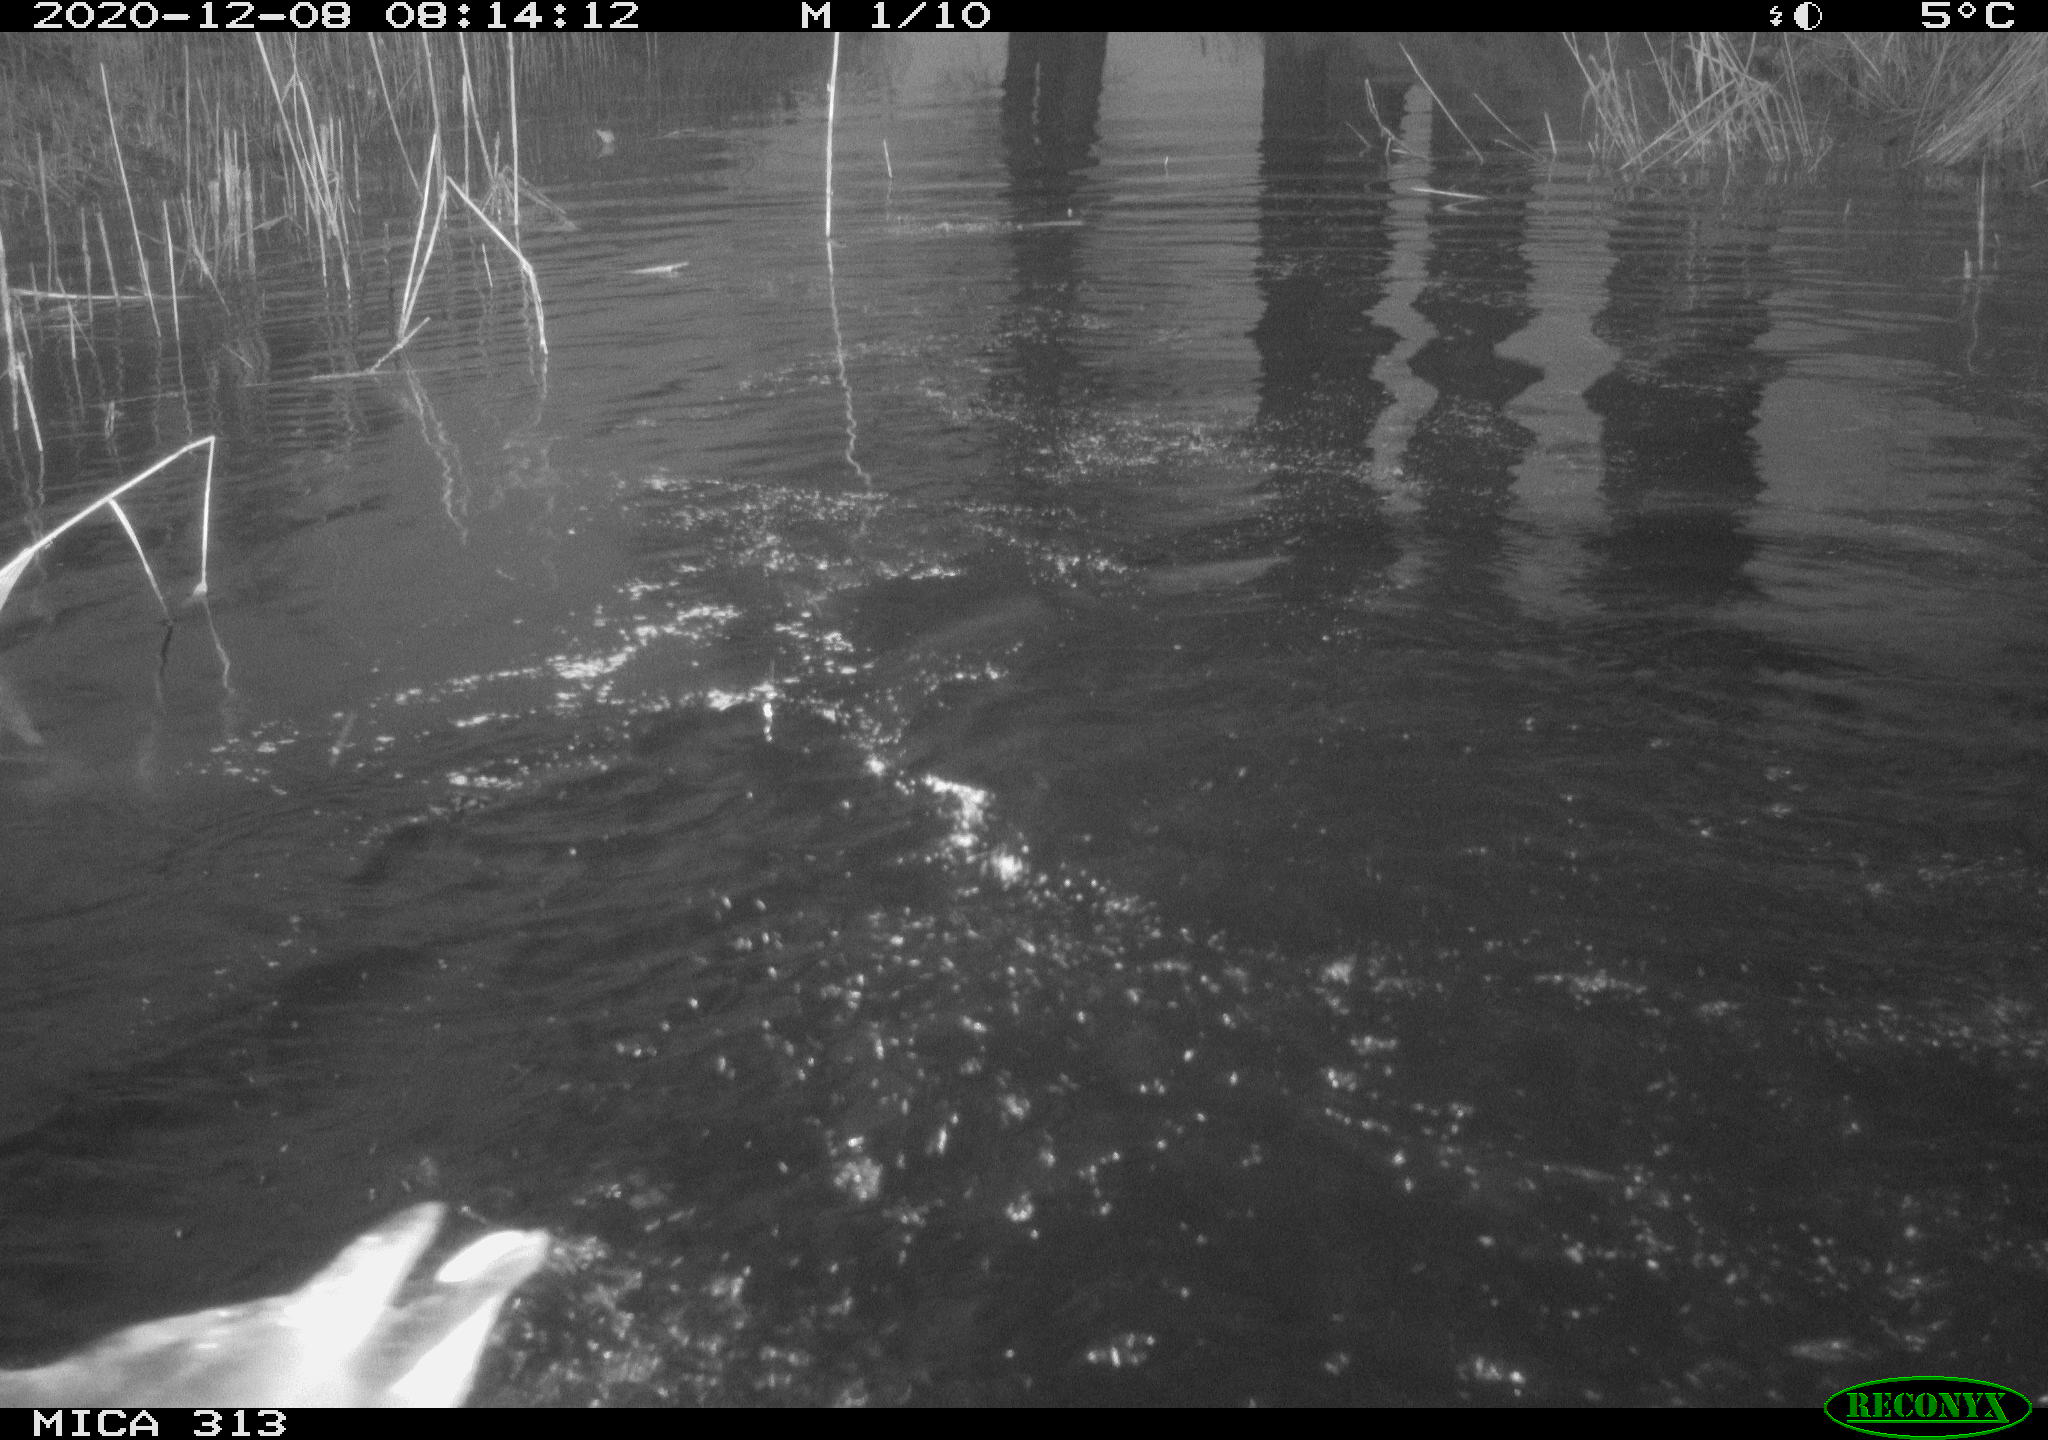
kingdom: Animalia
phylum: Chordata
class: Aves
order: Gruiformes
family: Rallidae
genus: Gallinula
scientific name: Gallinula chloropus
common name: Common moorhen
